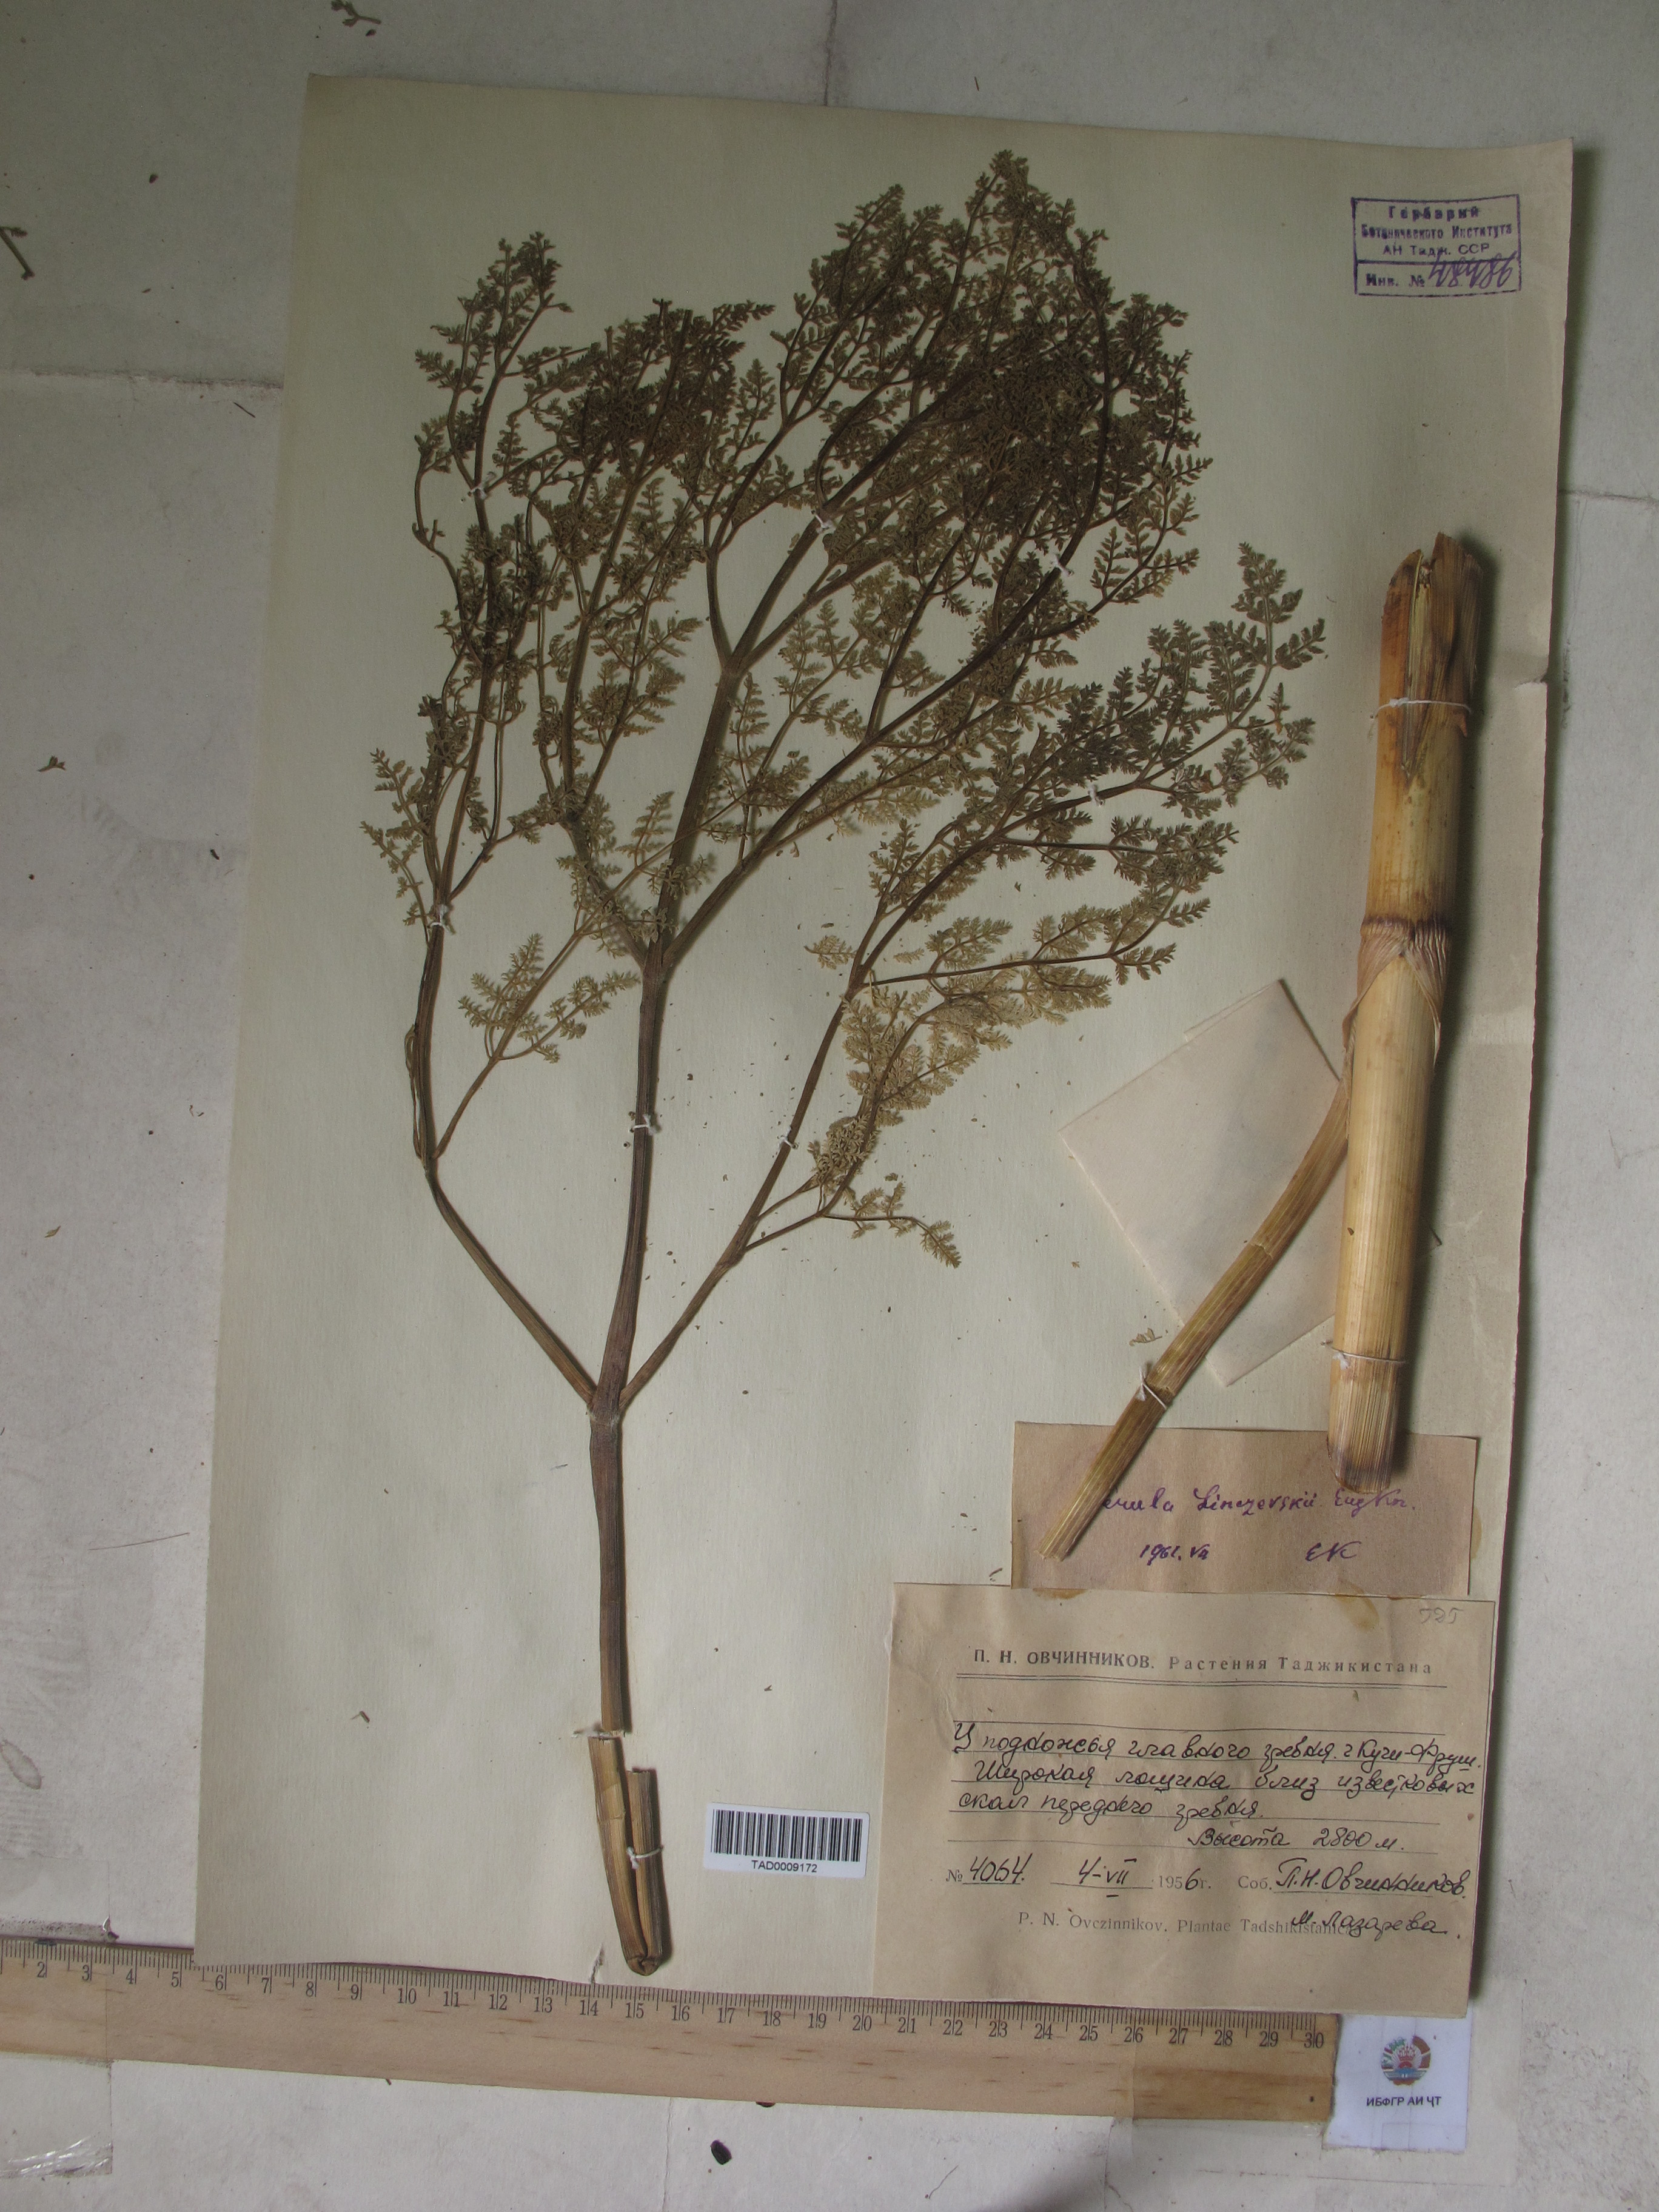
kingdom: Plantae
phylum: Tracheophyta
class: Magnoliopsida
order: Apiales
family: Apiaceae
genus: Ferula
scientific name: Ferula linczevskii
